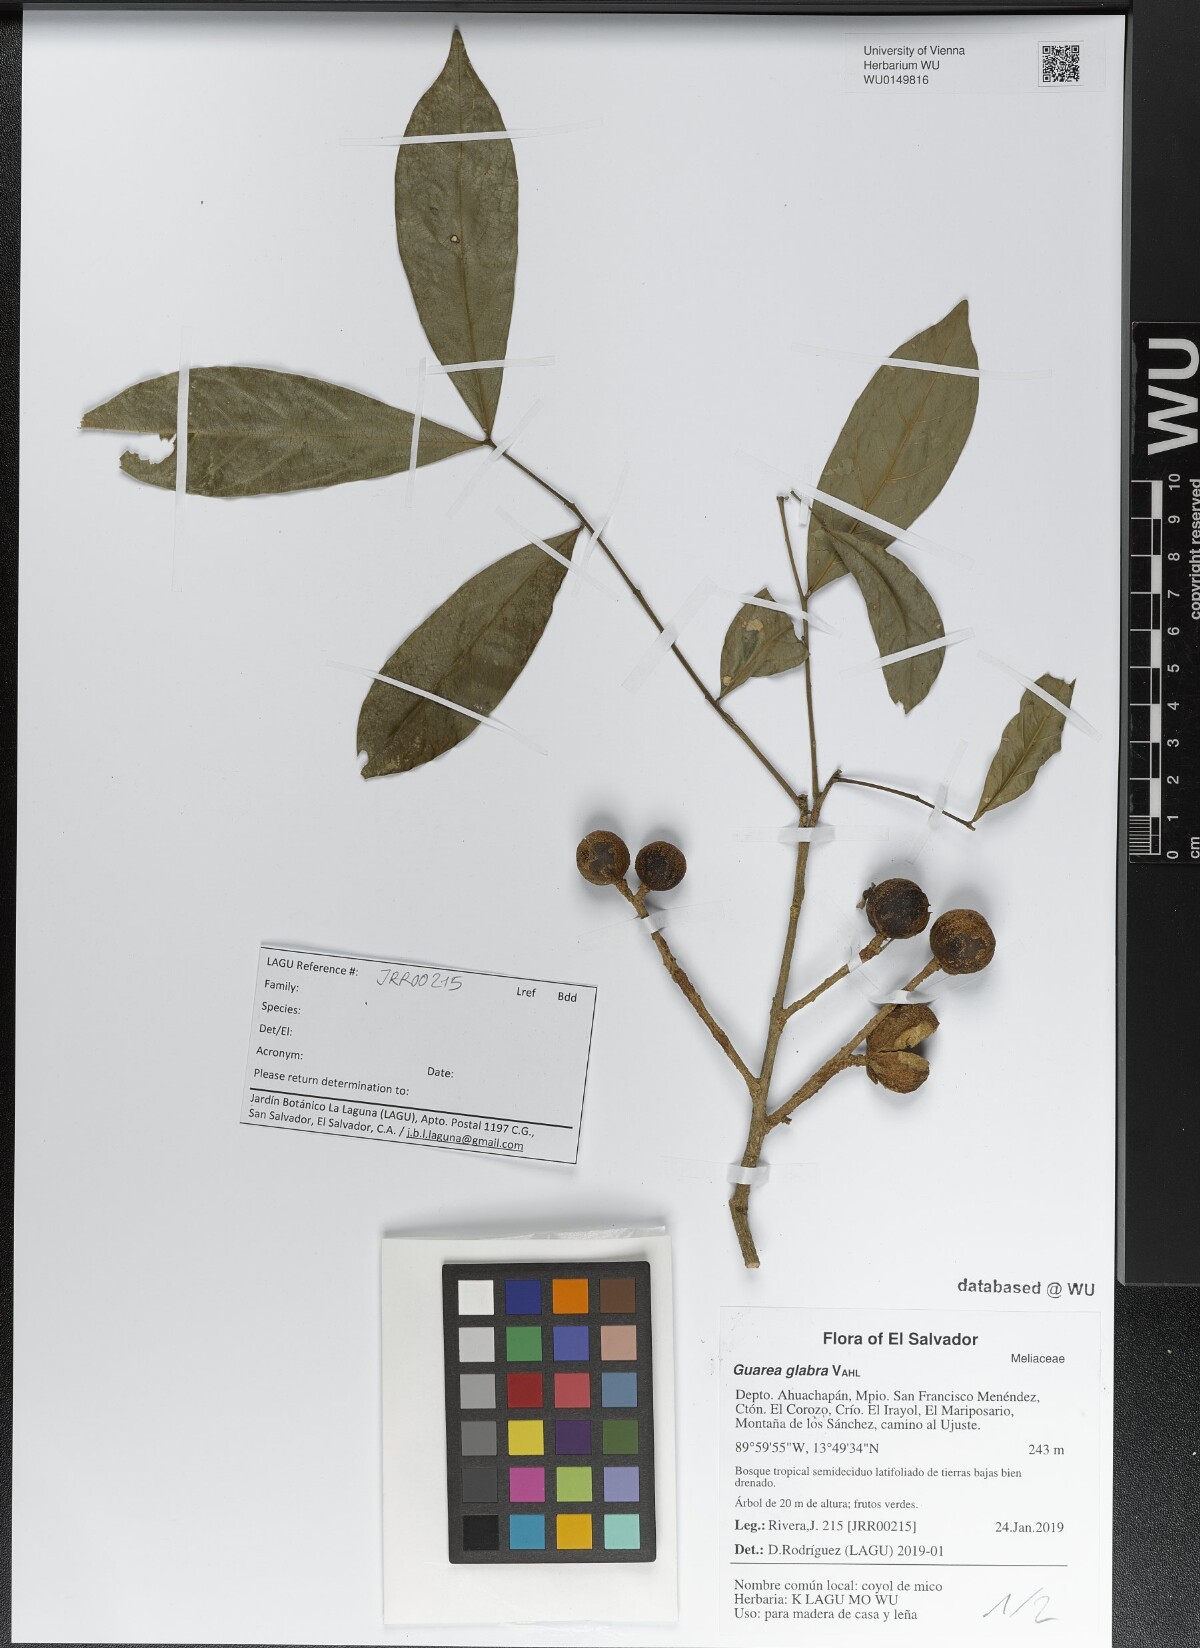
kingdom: Plantae
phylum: Tracheophyta
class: Magnoliopsida
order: Sapindales
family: Meliaceae
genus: Guarea
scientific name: Guarea glabra
